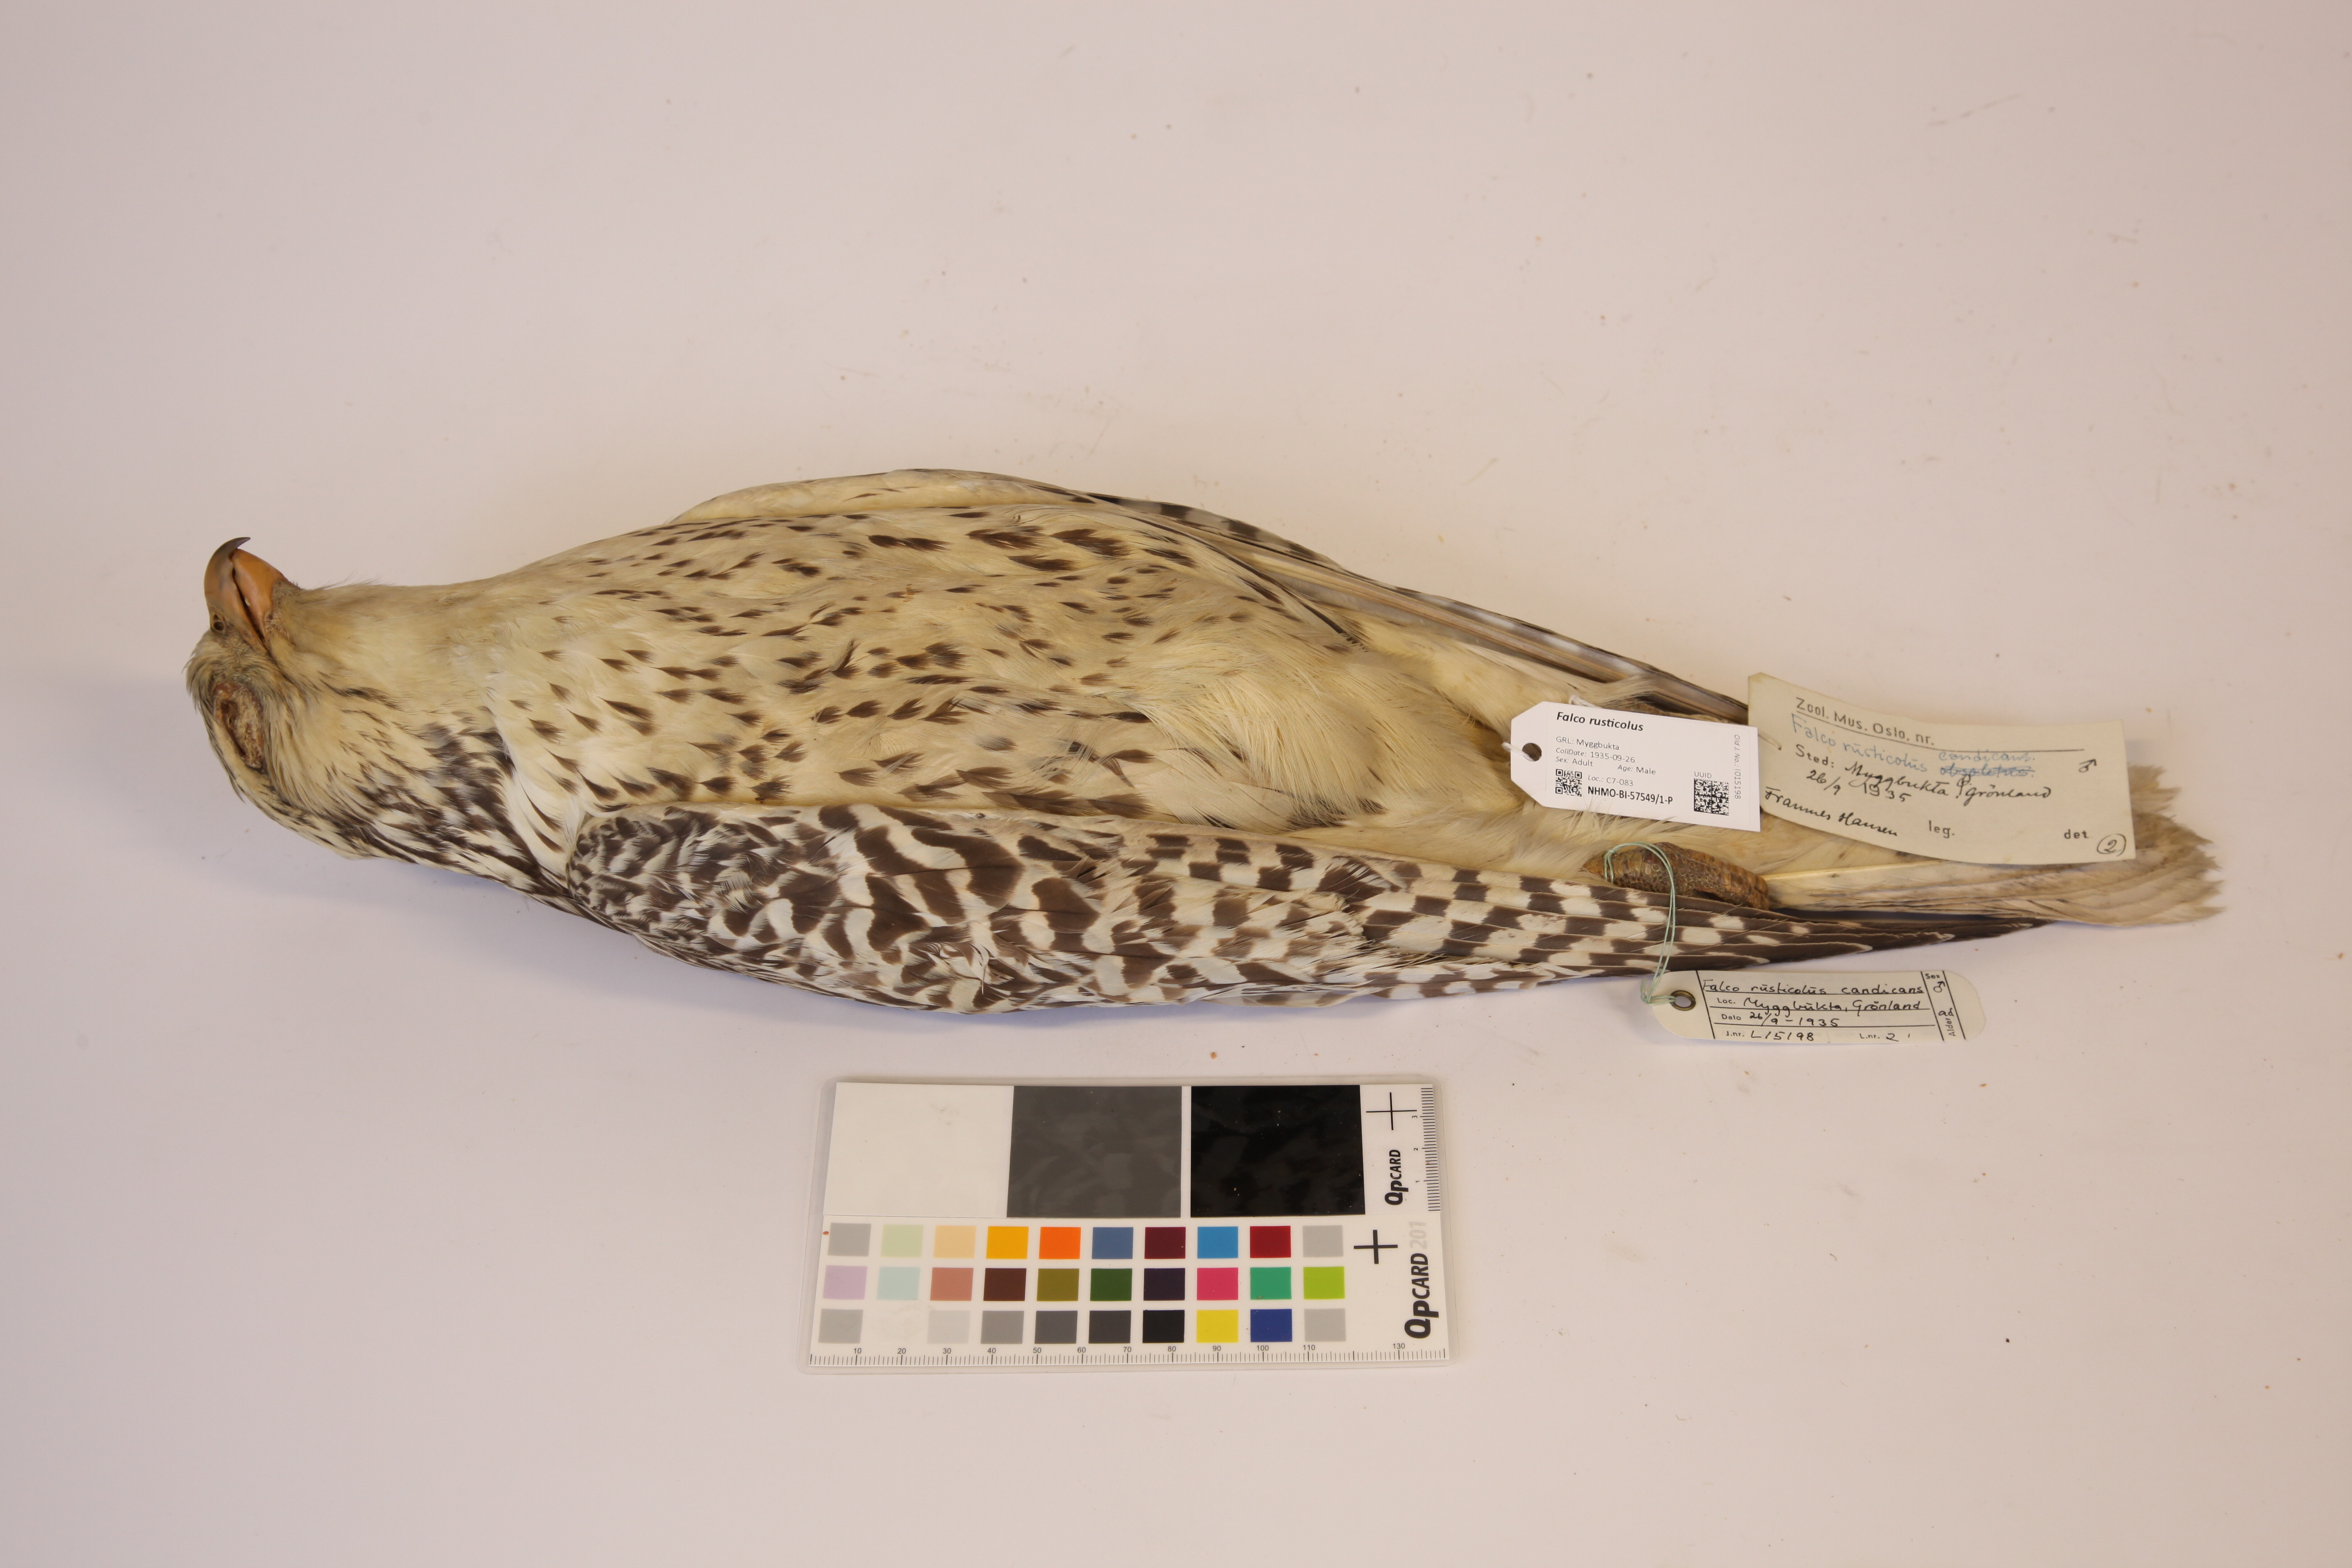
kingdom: Animalia
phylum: Chordata
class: Aves
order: Falconiformes
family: Falconidae
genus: Falco
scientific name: Falco rusticolus
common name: Gyrfalcon
